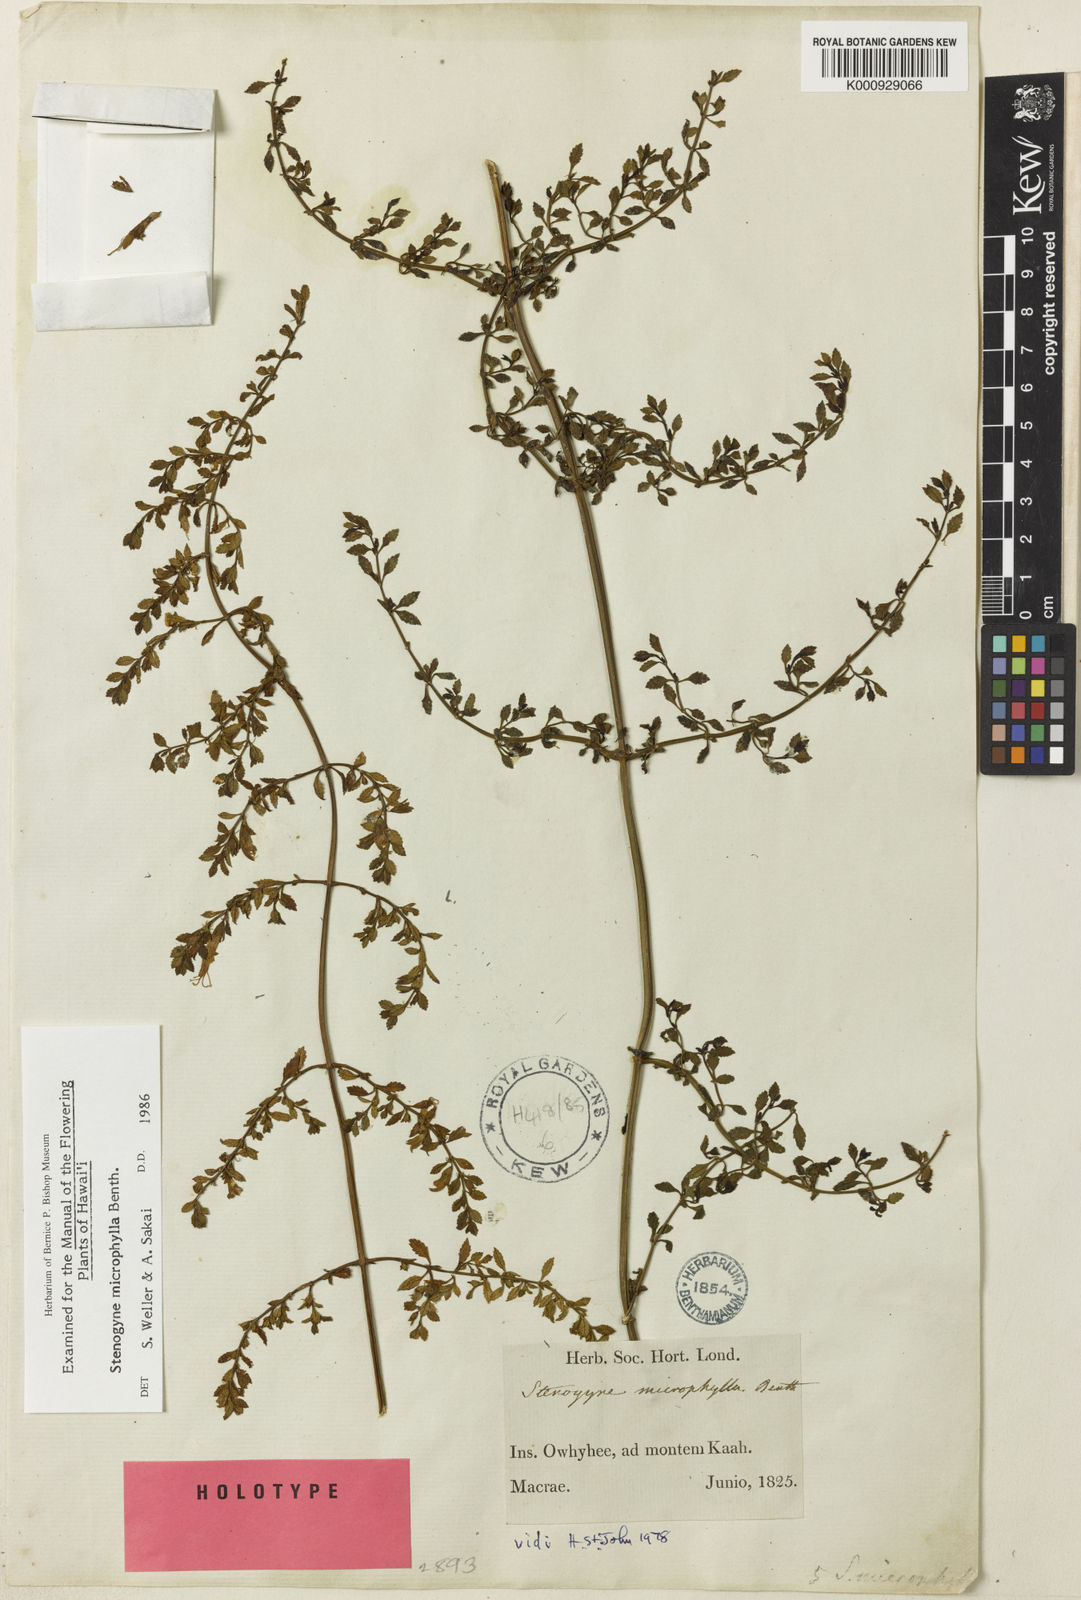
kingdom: Plantae
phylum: Tracheophyta
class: Magnoliopsida
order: Lamiales
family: Lamiaceae
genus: Stenogyne
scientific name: Stenogyne microphylla
